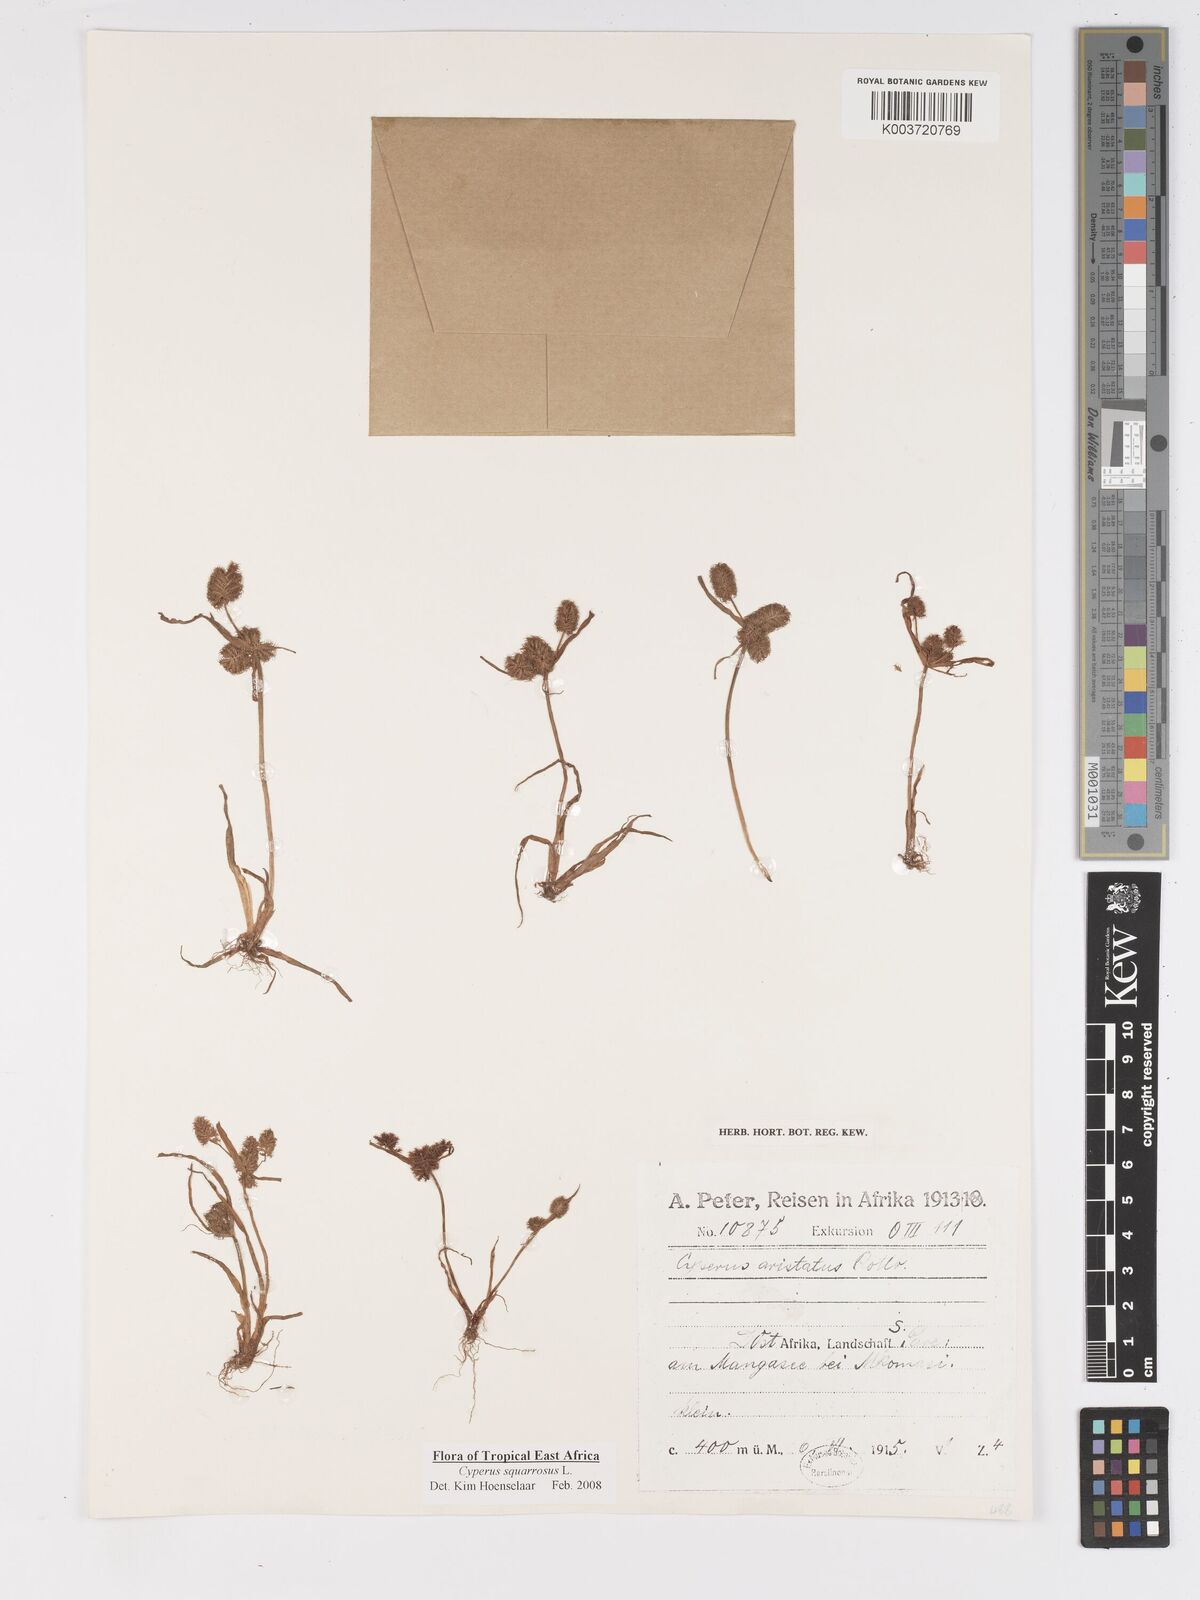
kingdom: Plantae
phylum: Tracheophyta
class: Liliopsida
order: Poales
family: Cyperaceae
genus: Cyperus
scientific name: Cyperus squarrosus
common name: Awned cyperus
